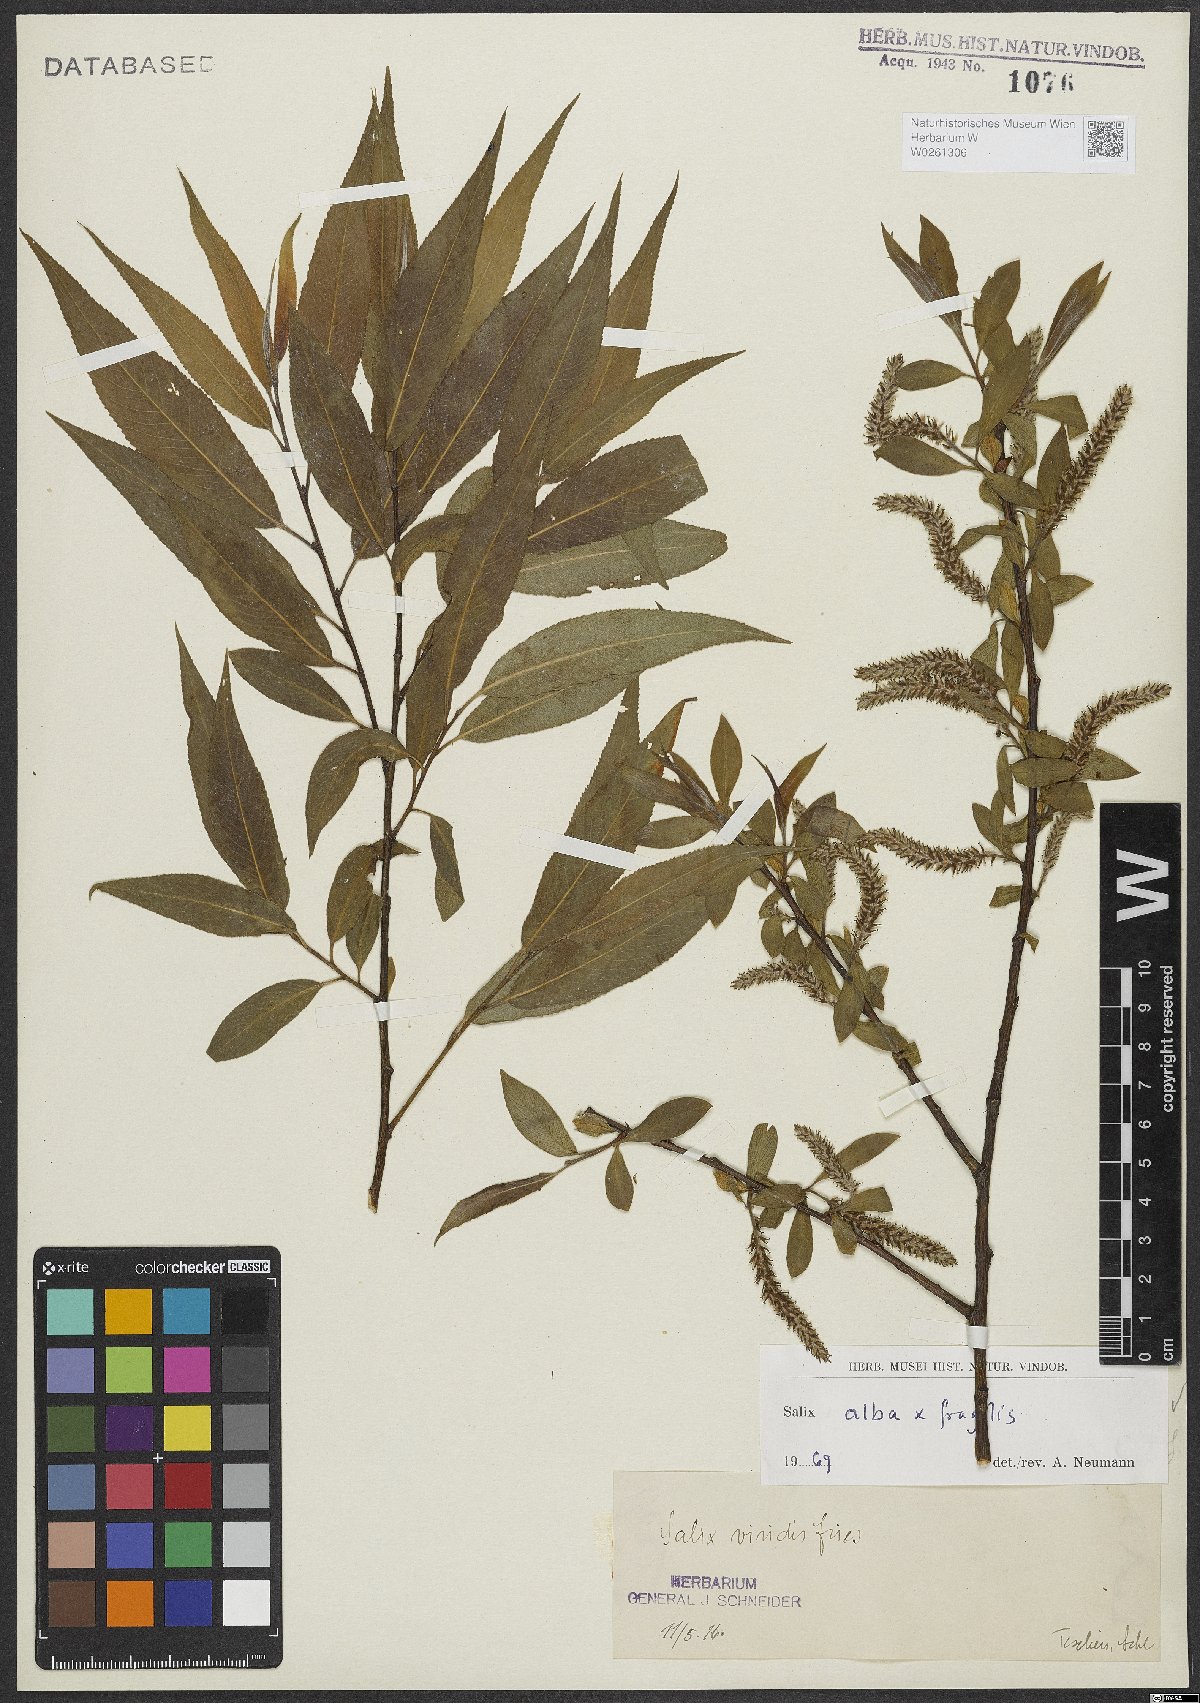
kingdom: Plantae
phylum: Tracheophyta
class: Magnoliopsida
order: Malpighiales
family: Salicaceae
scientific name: Salicaceae
